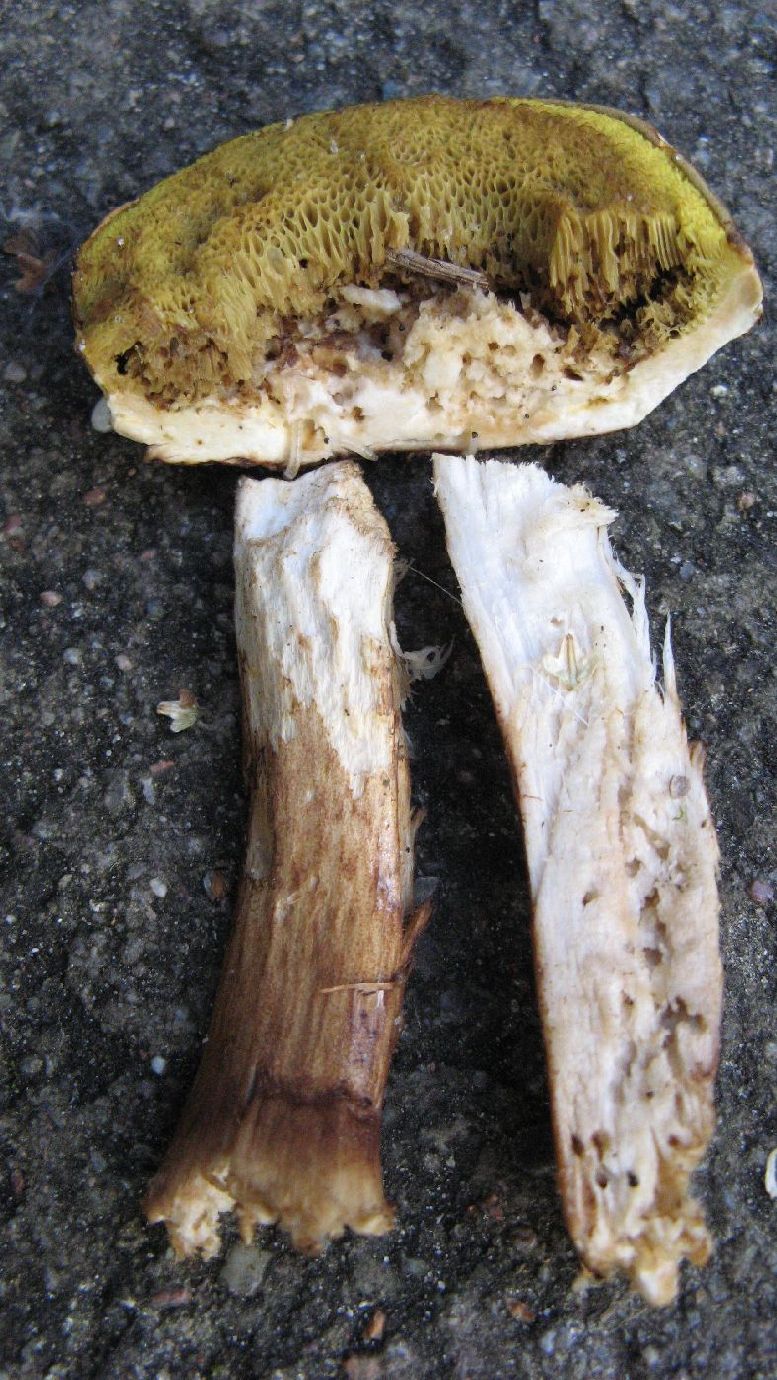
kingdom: Fungi
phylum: Basidiomycota
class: Agaricomycetes
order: Boletales
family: Boletaceae
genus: Xerocomus
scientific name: Xerocomus ferrugineus
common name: vaskeskinds-rørhat
